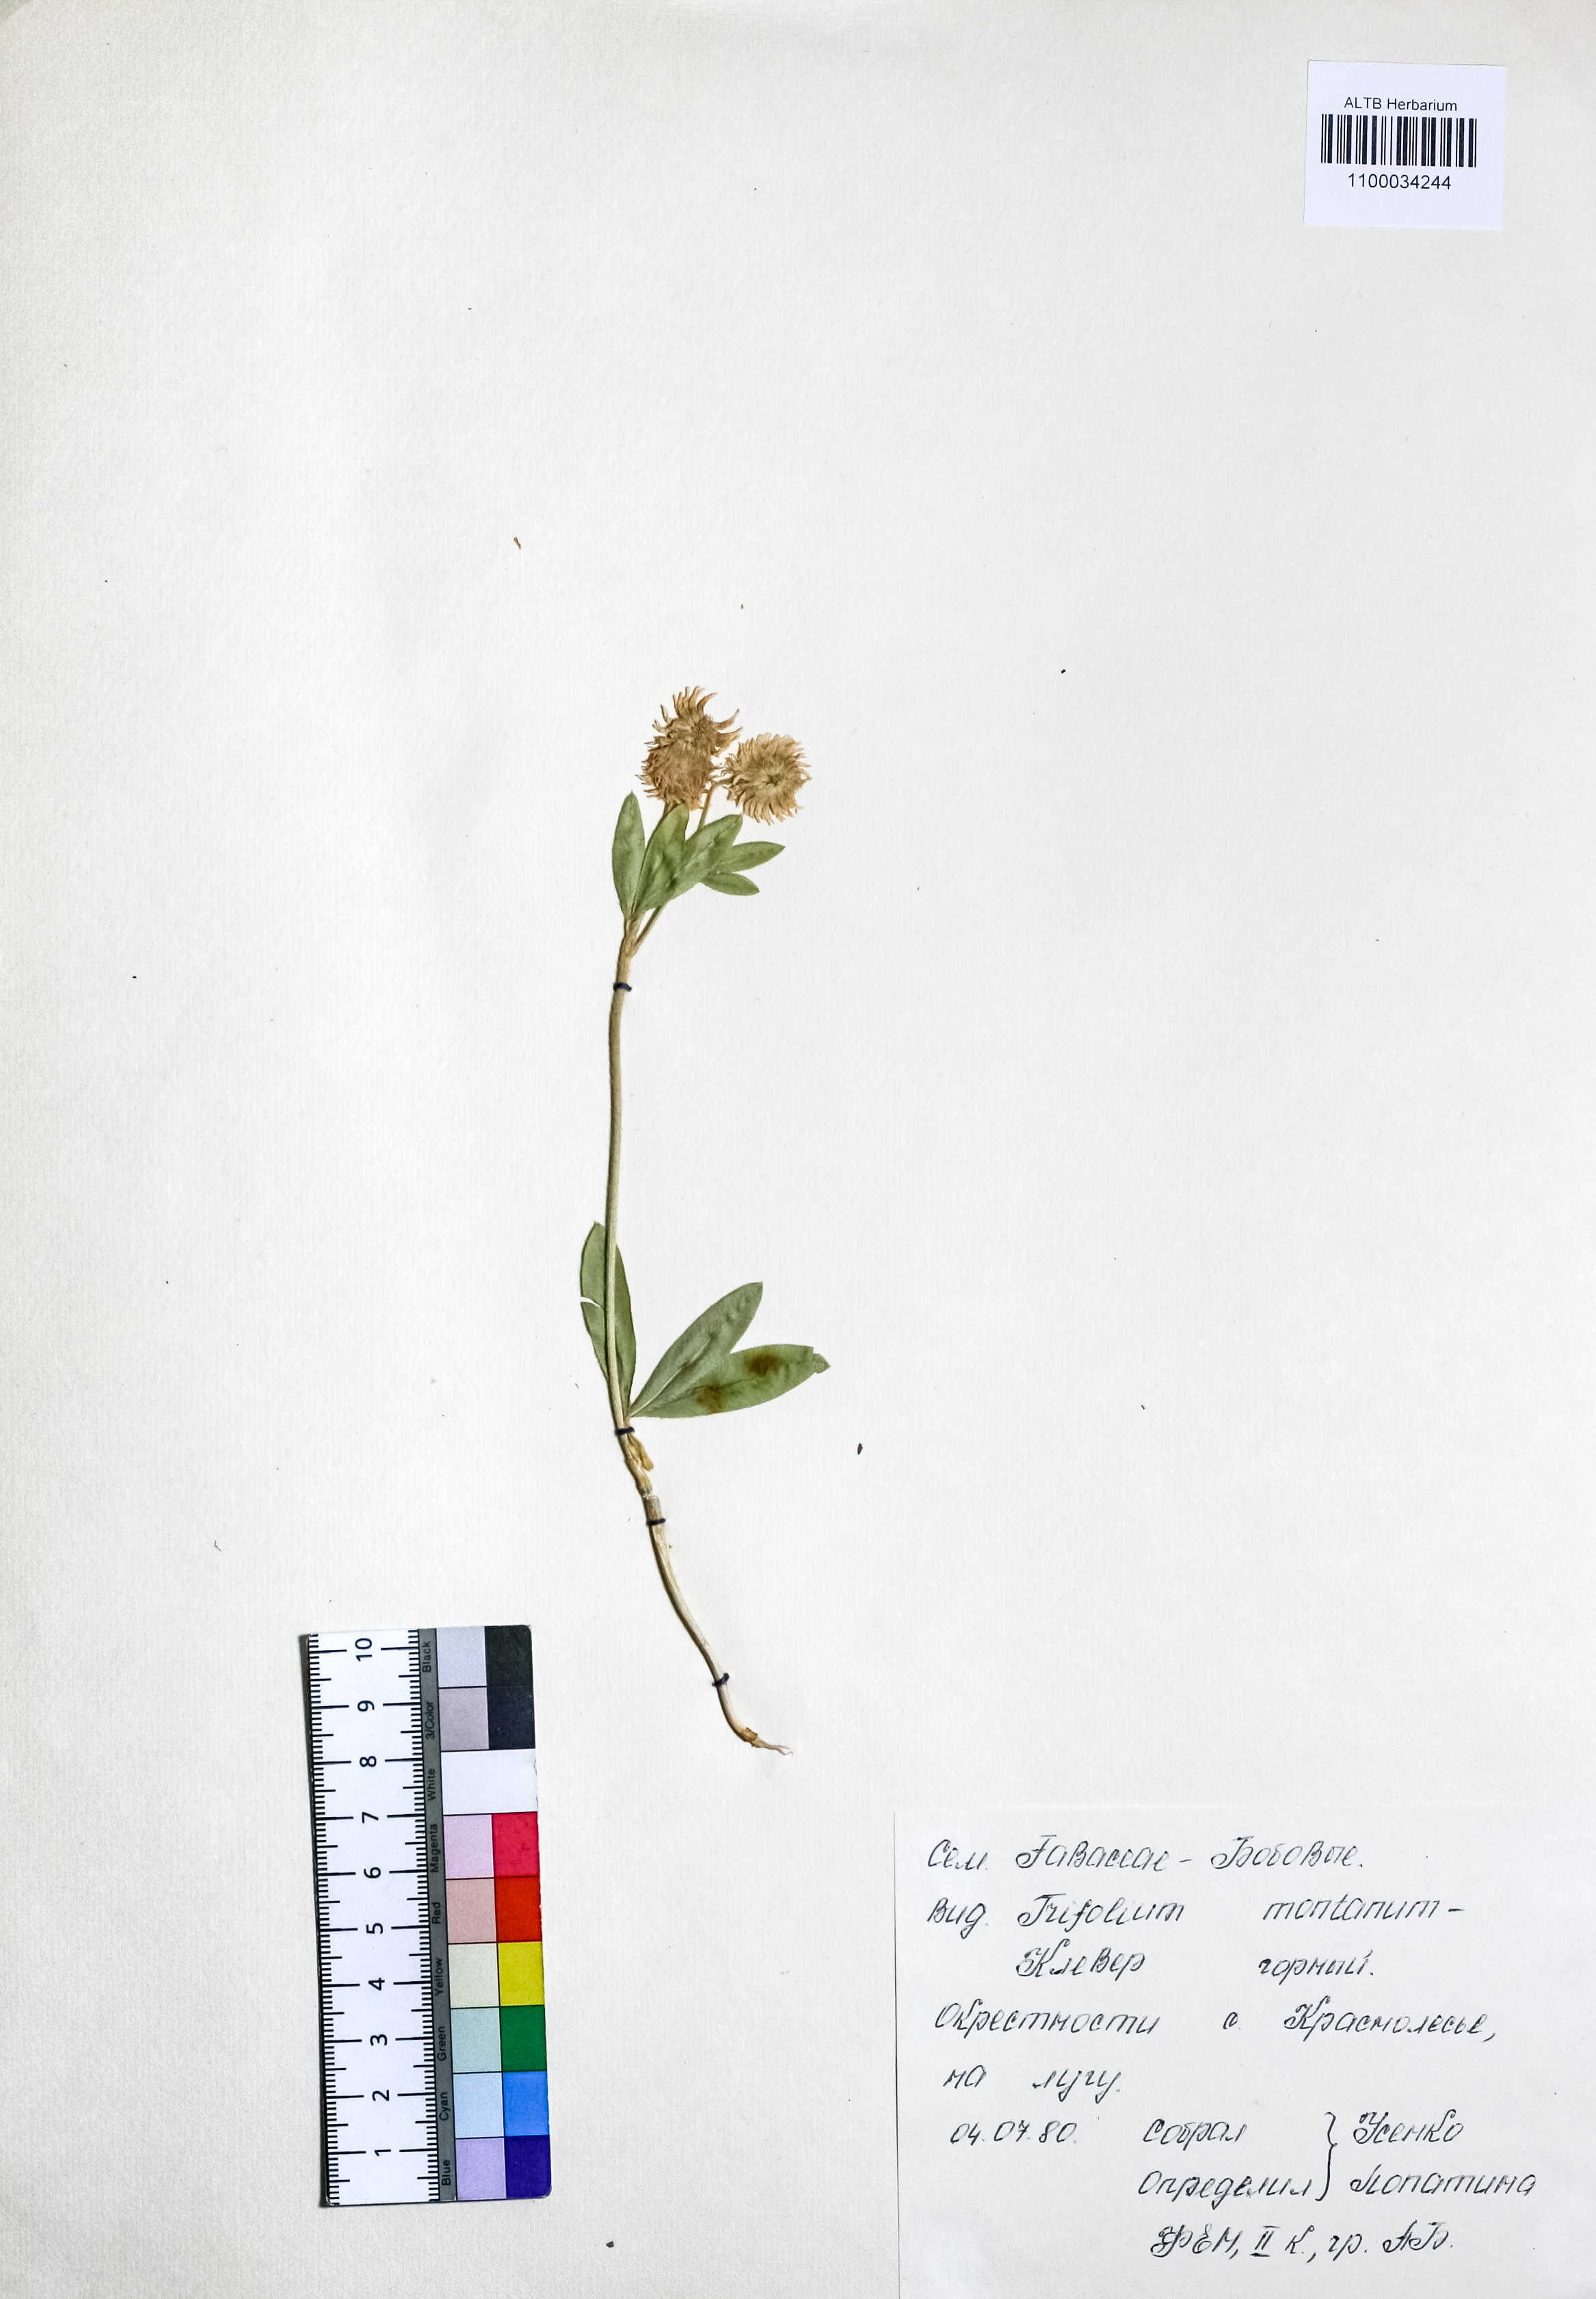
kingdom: Plantae
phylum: Tracheophyta
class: Magnoliopsida
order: Fabales
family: Fabaceae
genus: Trifolium
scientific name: Trifolium montanum
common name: Mountain clover
